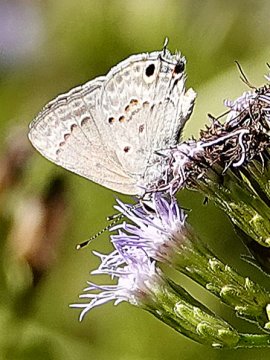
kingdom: Animalia
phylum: Arthropoda
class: Insecta
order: Lepidoptera
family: Lycaenidae
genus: Callicista
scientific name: Callicista columella
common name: Mallow Scrub-Hairstreak
